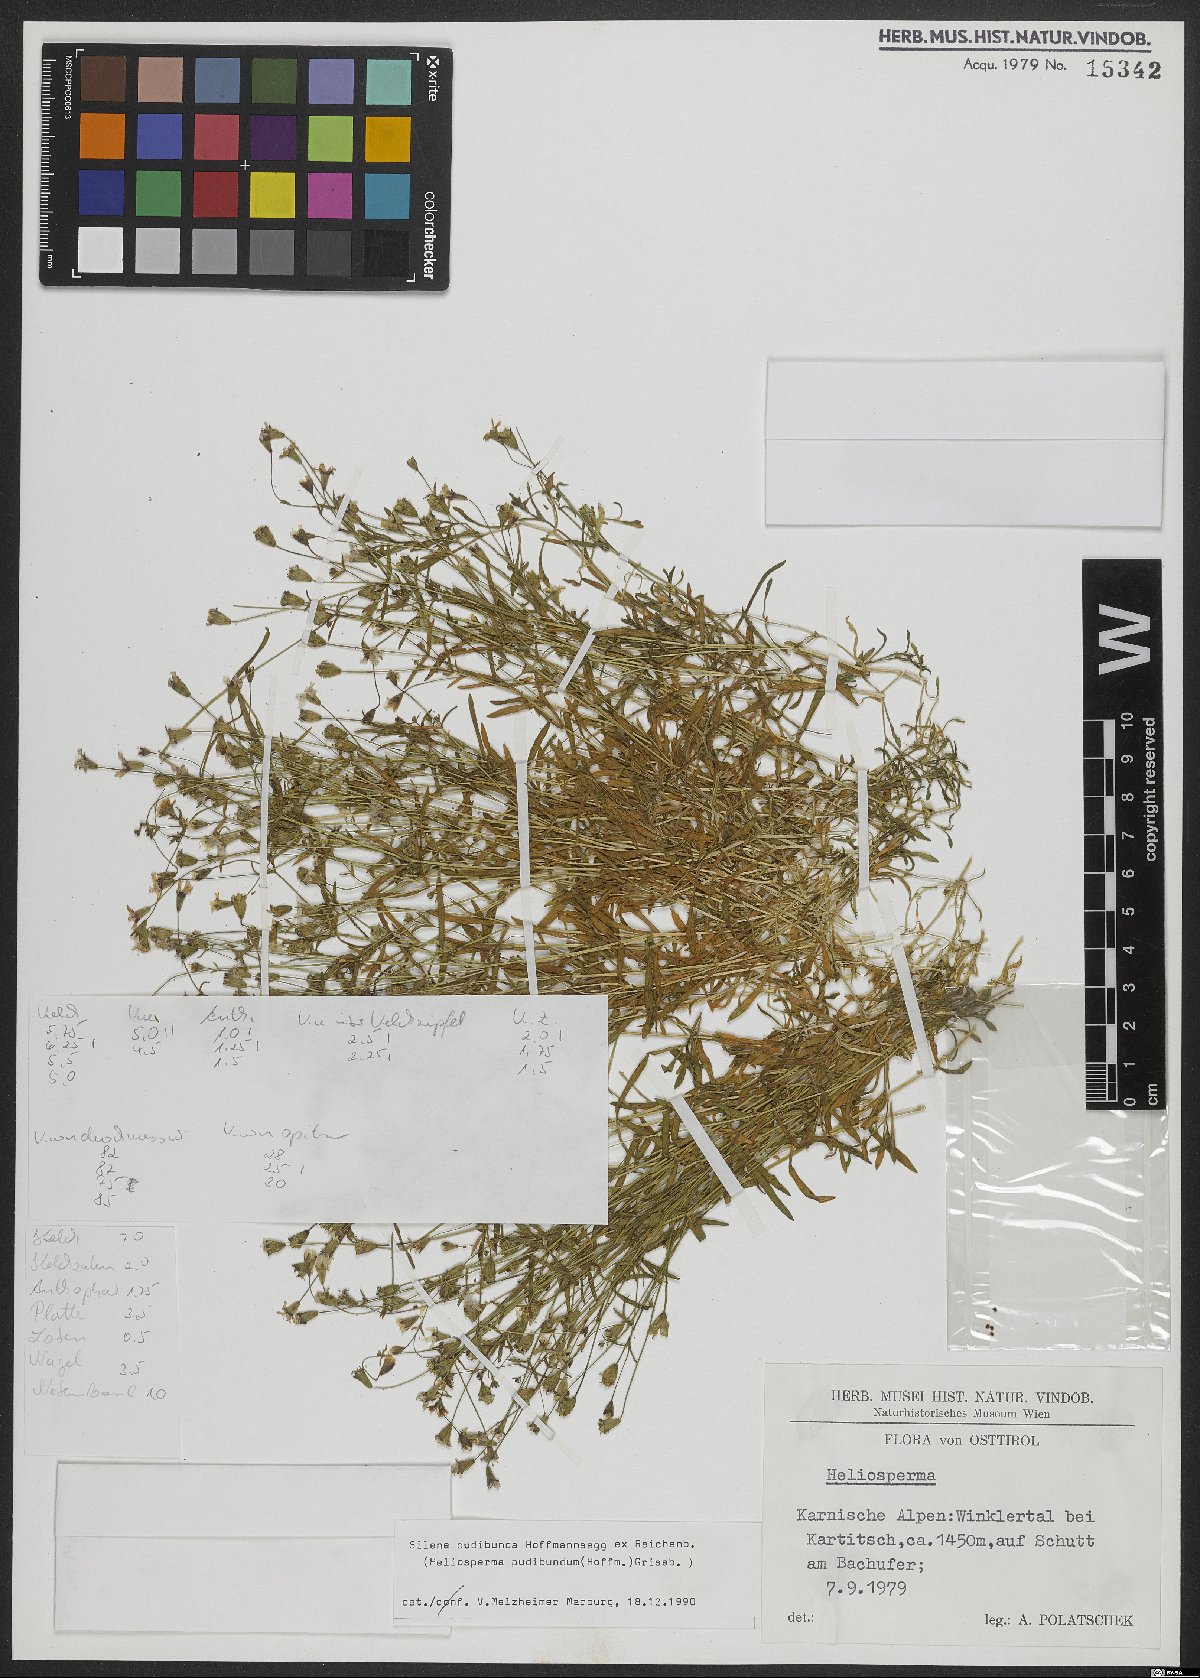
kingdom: Plantae
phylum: Tracheophyta
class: Magnoliopsida
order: Caryophyllales
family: Caryophyllaceae
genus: Heliosperma
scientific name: Heliosperma pudibundum
